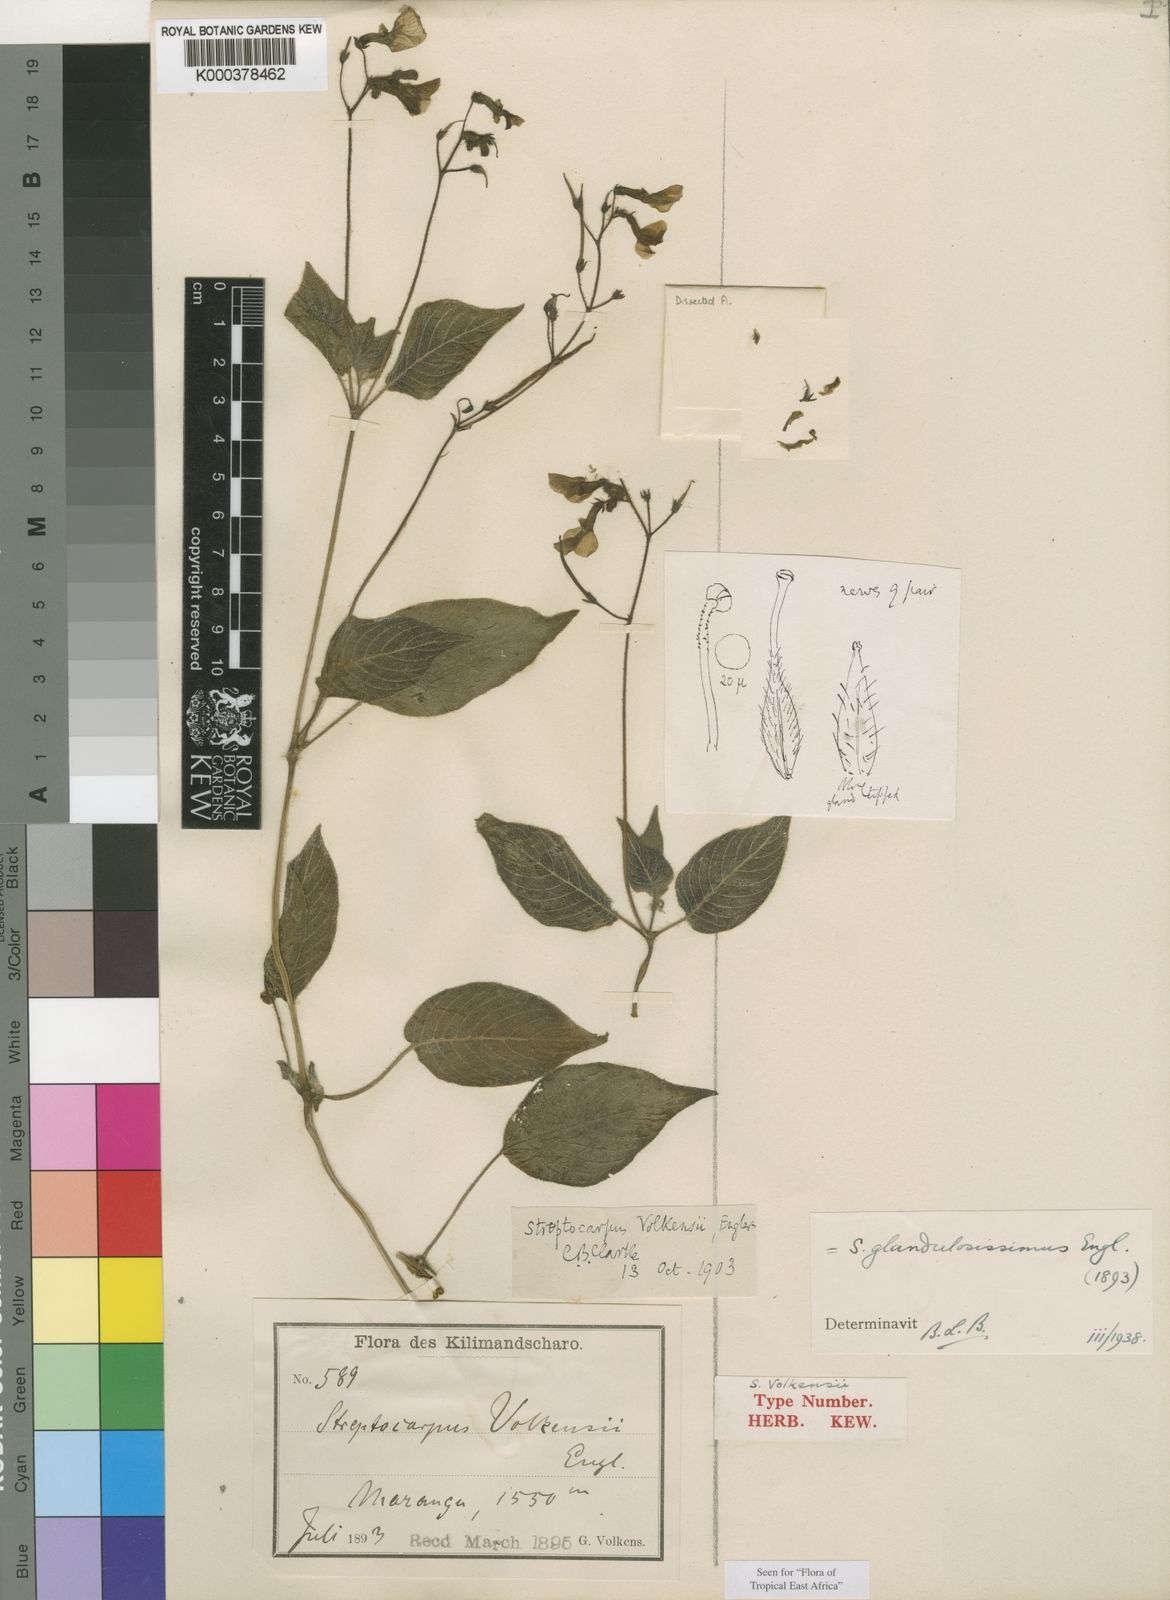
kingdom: Plantae
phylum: Tracheophyta
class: Magnoliopsida
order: Lamiales
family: Gesneriaceae
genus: Streptocarpus
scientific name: Streptocarpus glandulosissimus
